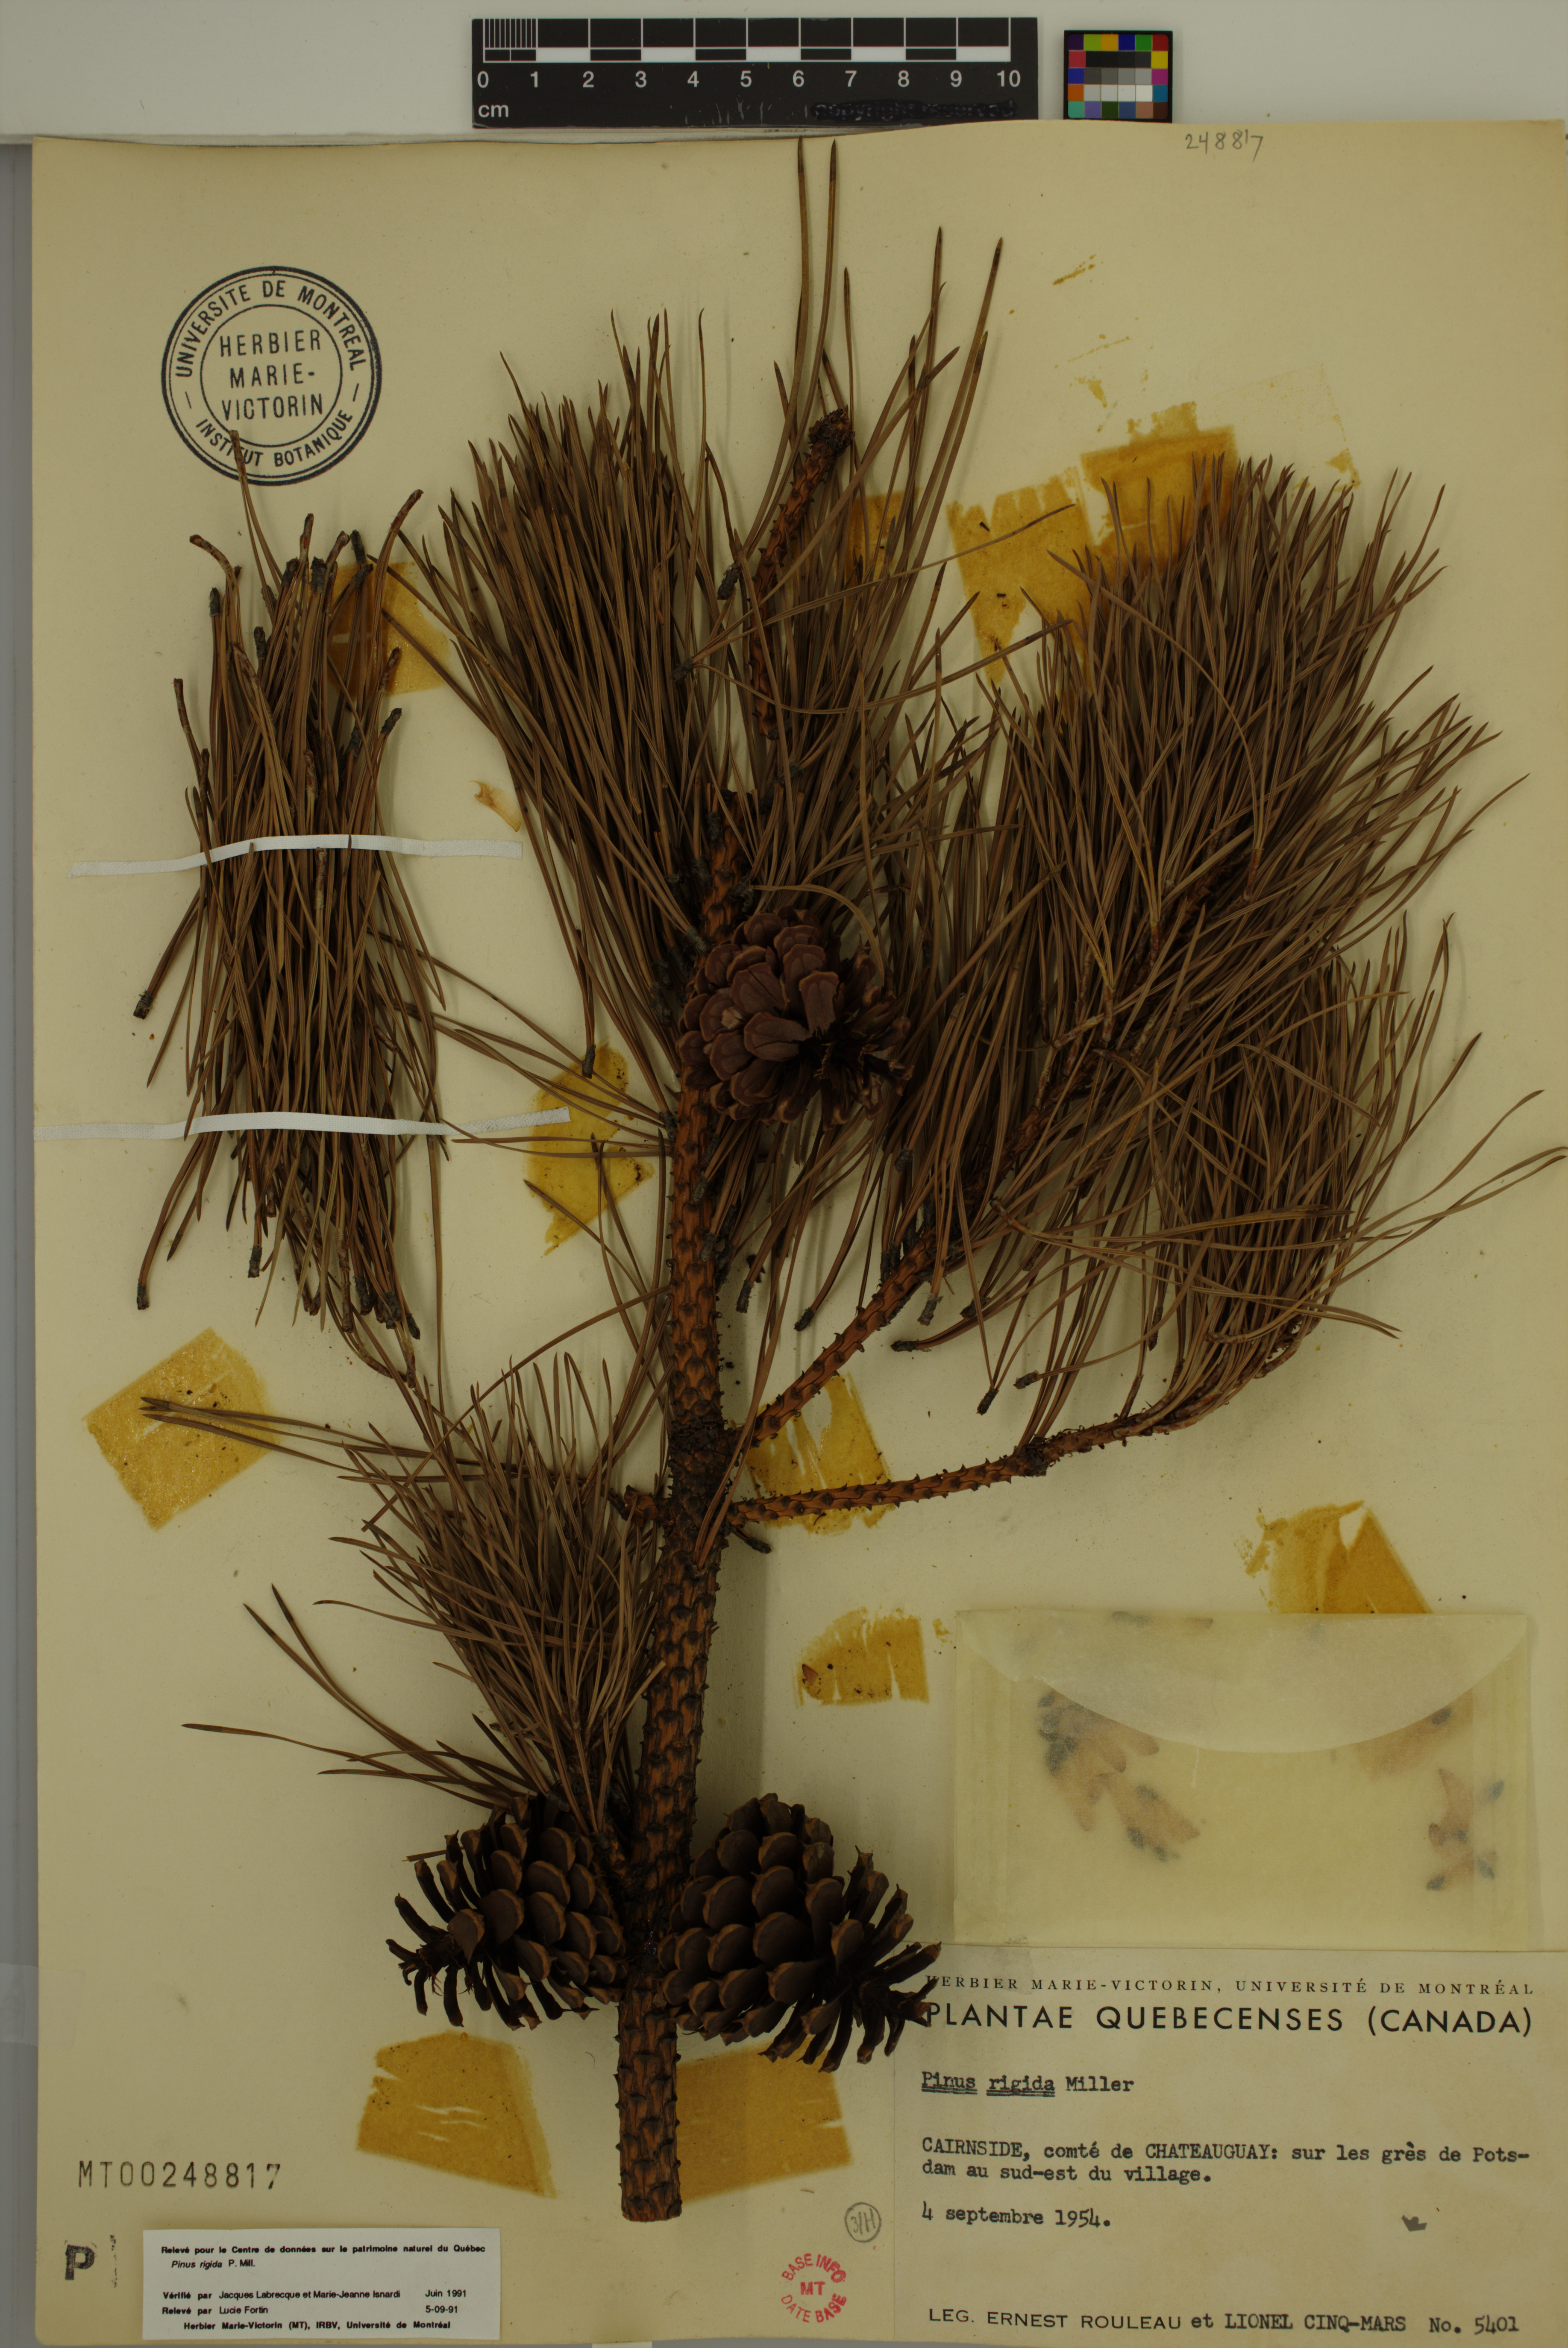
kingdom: Plantae
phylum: Tracheophyta
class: Pinopsida
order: Pinales
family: Pinaceae
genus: Pinus
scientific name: Pinus rigida
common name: Pitch pine
